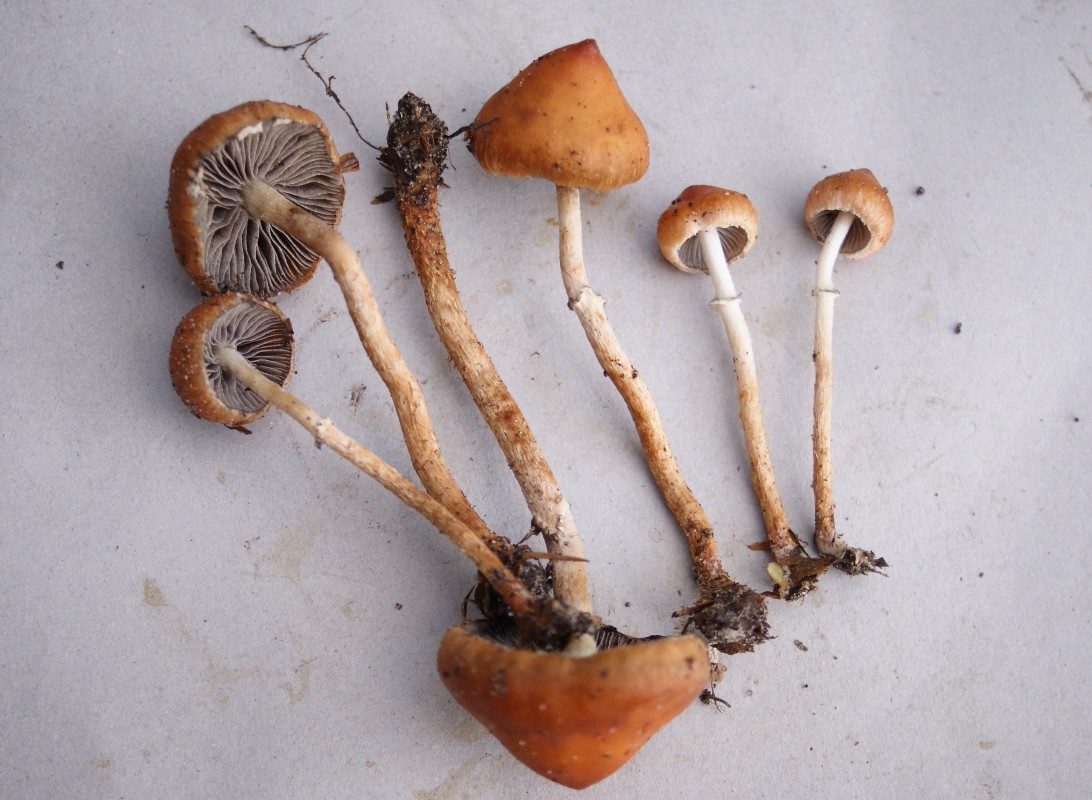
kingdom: Fungi
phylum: Basidiomycota
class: Agaricomycetes
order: Agaricales
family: Strophariaceae
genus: Leratiomyces
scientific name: Leratiomyces squamosus
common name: skællet bredblad
